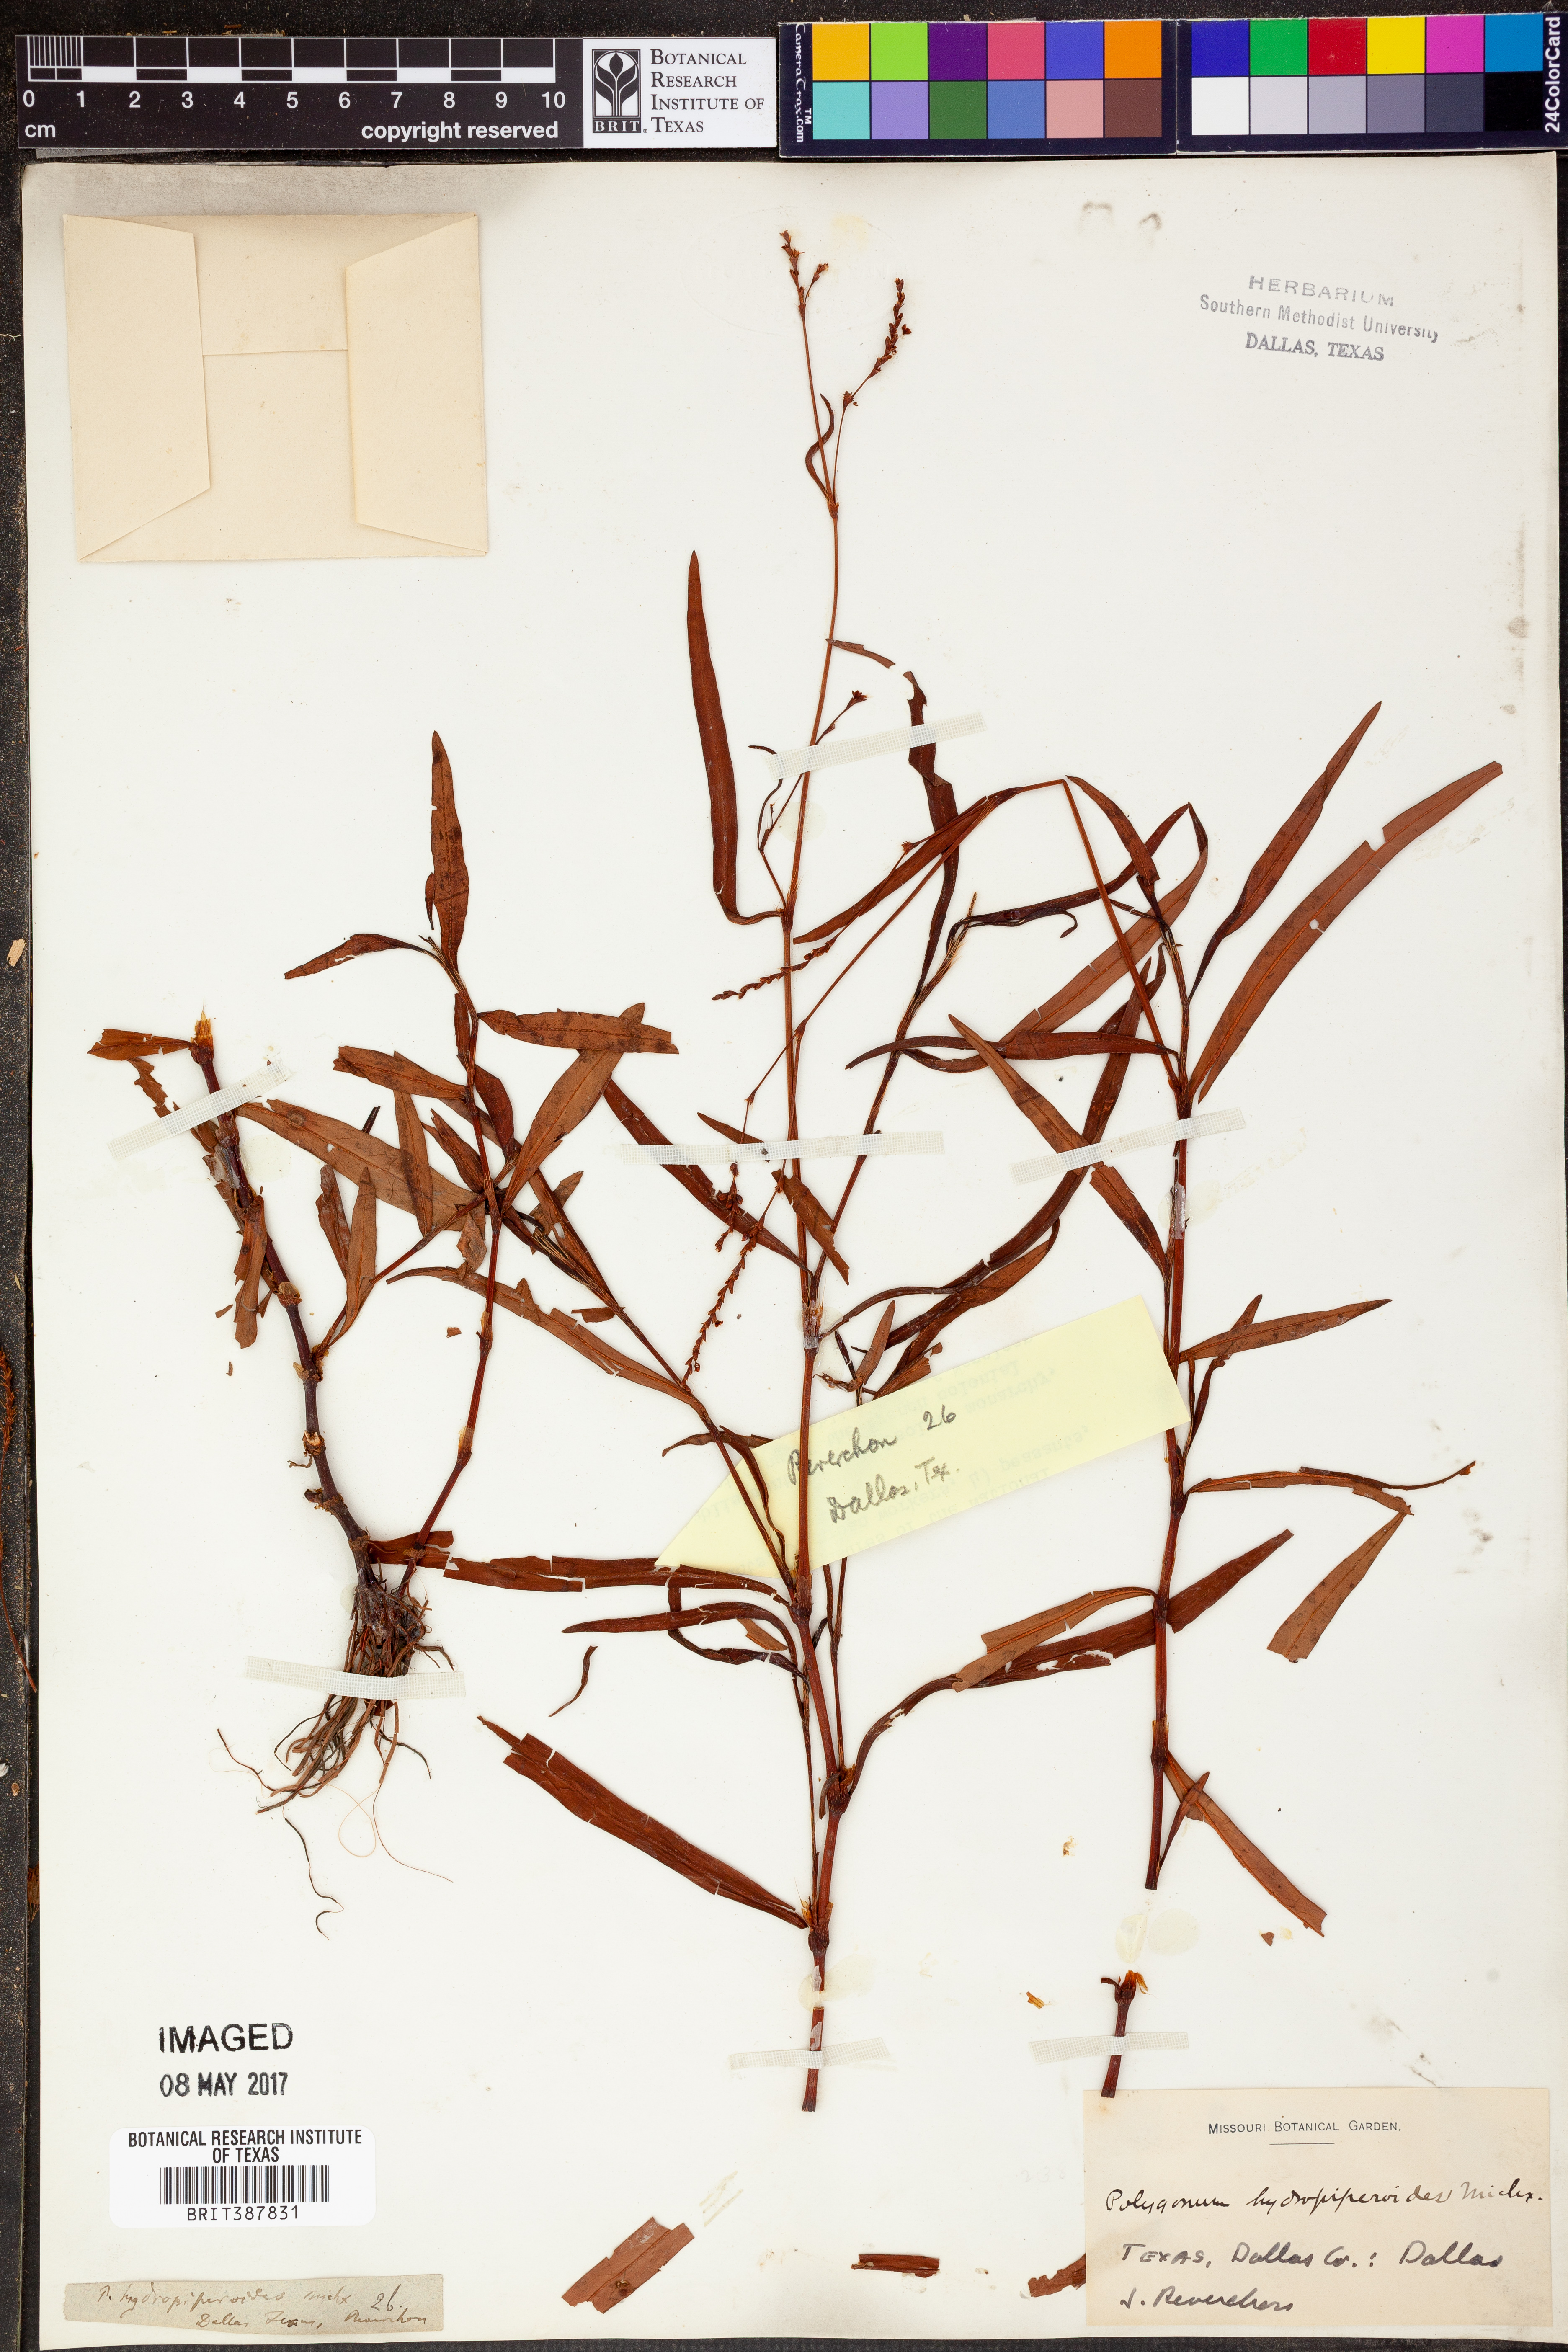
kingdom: Plantae
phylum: Tracheophyta
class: Magnoliopsida
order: Caryophyllales
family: Polygonaceae
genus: Persicaria
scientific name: Persicaria hydropiperoides
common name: Swamp smartweed
